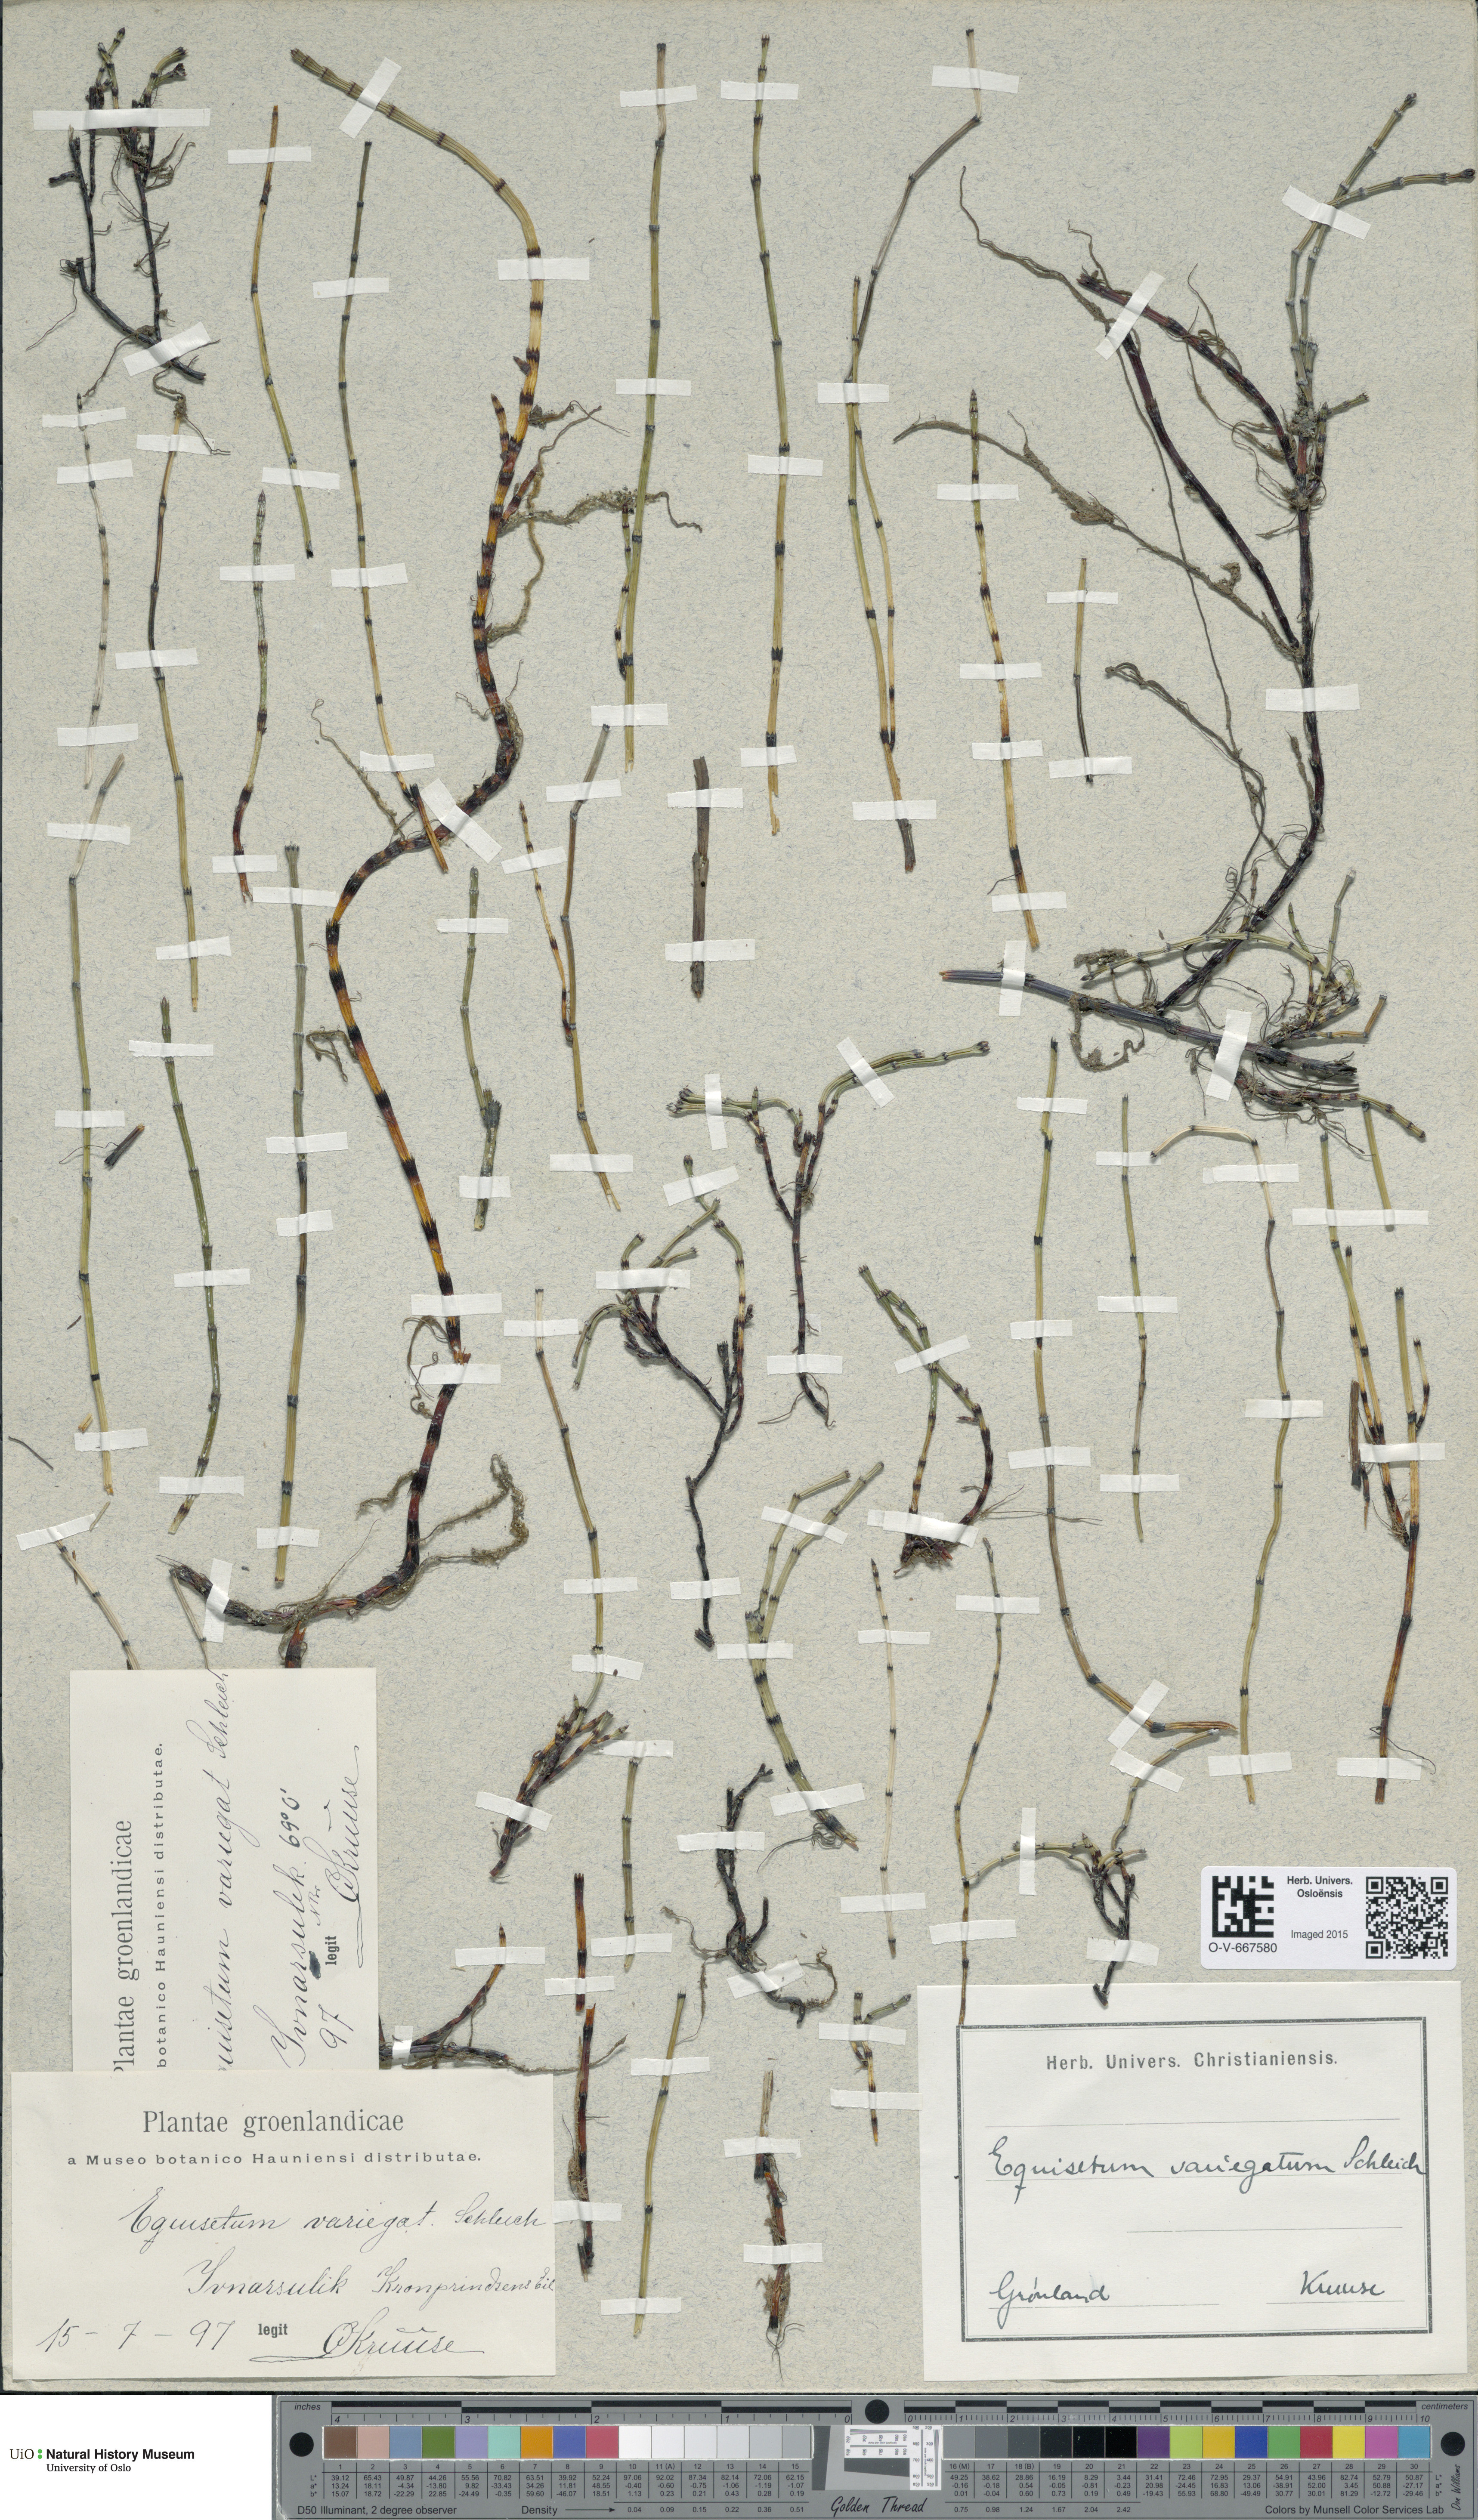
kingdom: Plantae
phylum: Tracheophyta
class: Polypodiopsida
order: Equisetales
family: Equisetaceae
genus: Equisetum
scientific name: Equisetum variegatum
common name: Variegated horsetail
